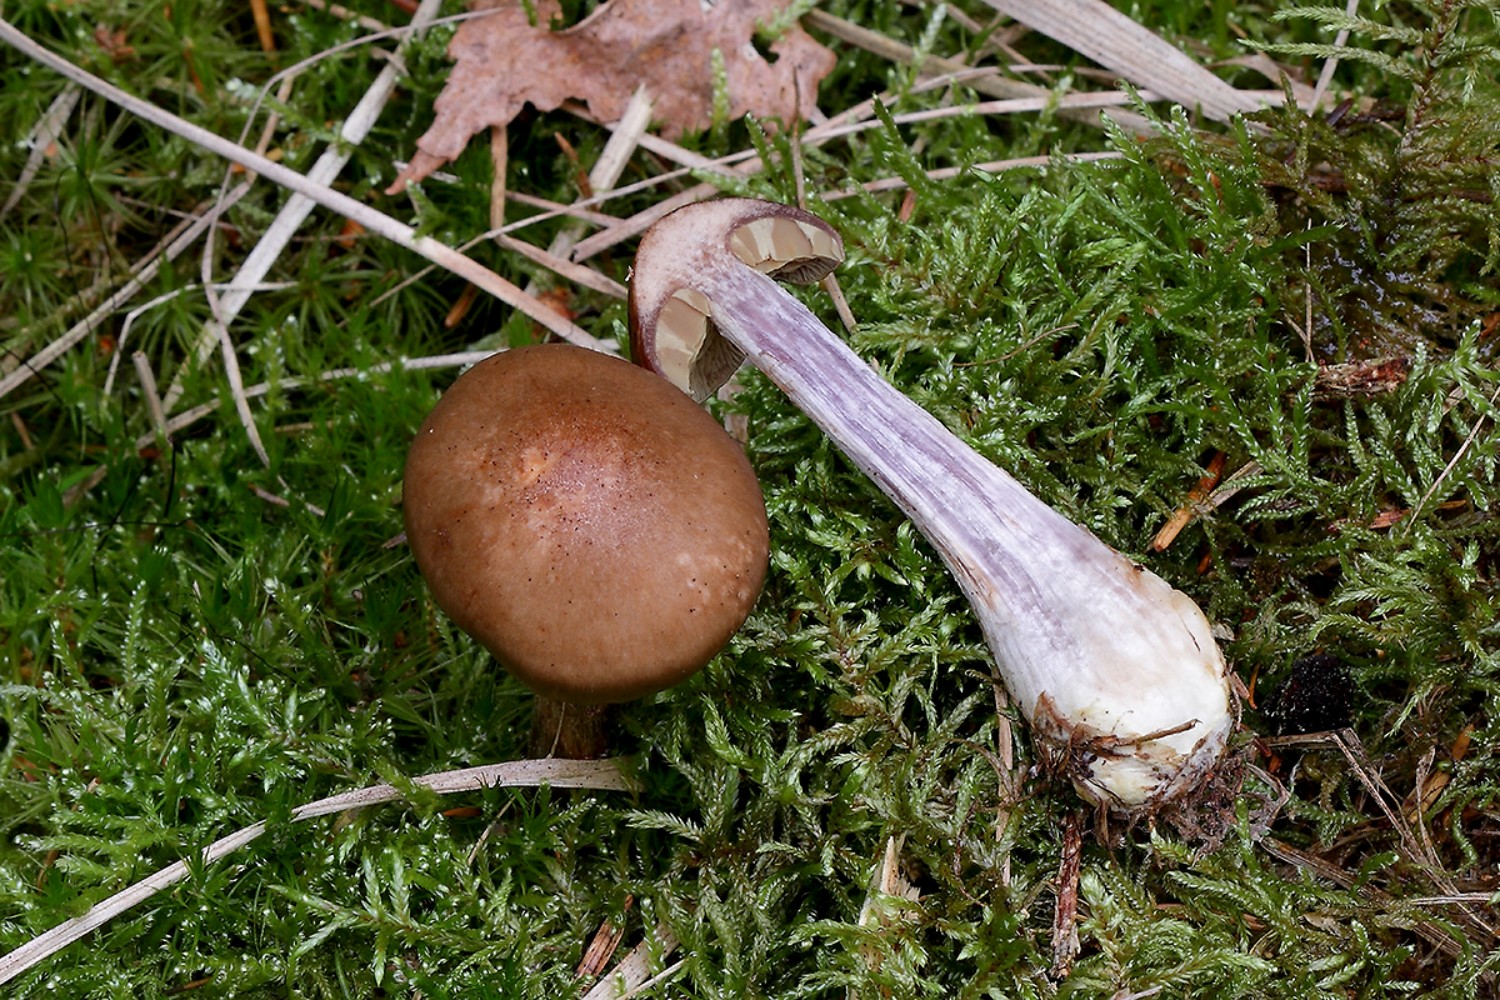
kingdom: Fungi
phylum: Basidiomycota
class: Agaricomycetes
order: Agaricales
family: Cortinariaceae
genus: Thaxterogaster
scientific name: Thaxterogaster scaurus
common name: sump-slørhat
